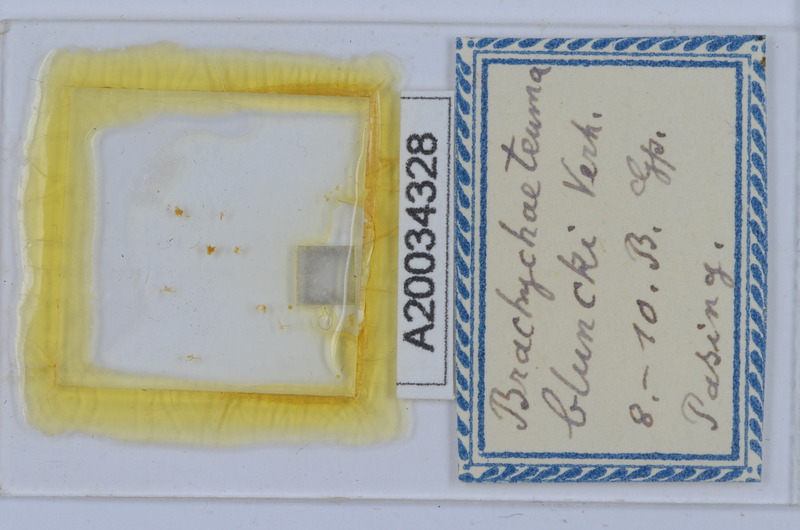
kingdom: Animalia
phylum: Arthropoda
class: Diplopoda
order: Chordeumatida
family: Brachychaeteumatidae
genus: Brachychaeteuma
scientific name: Brachychaeteuma bradeae
